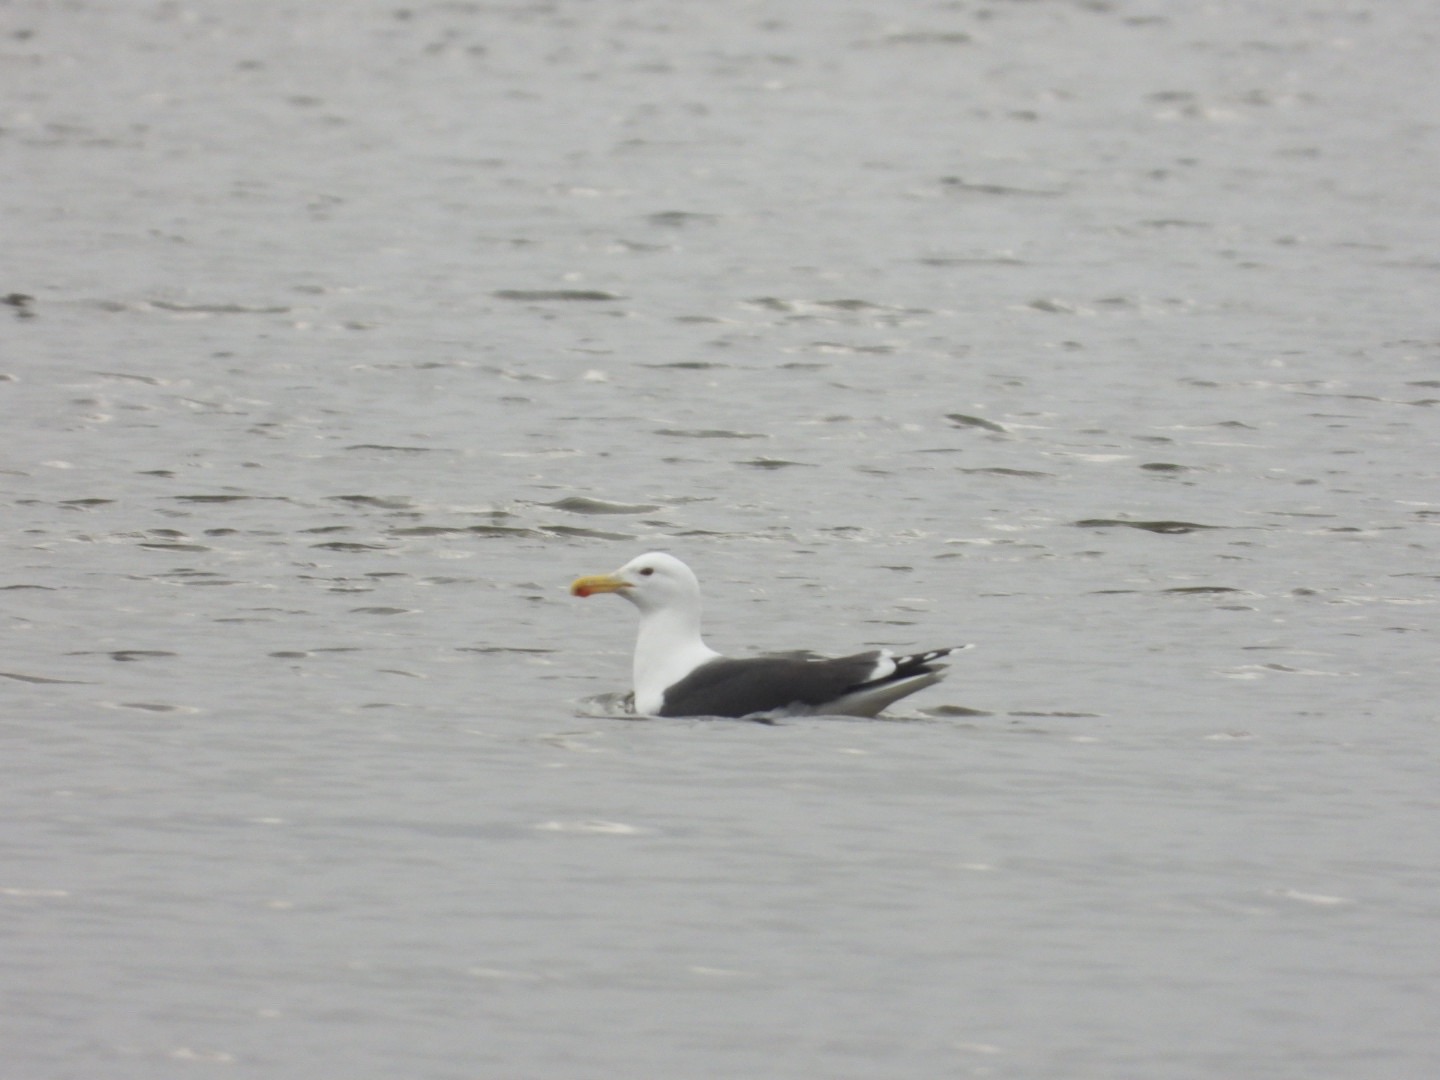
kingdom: Animalia
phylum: Chordata
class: Aves
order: Charadriiformes
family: Laridae
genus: Larus
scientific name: Larus marinus
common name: Svartbag
